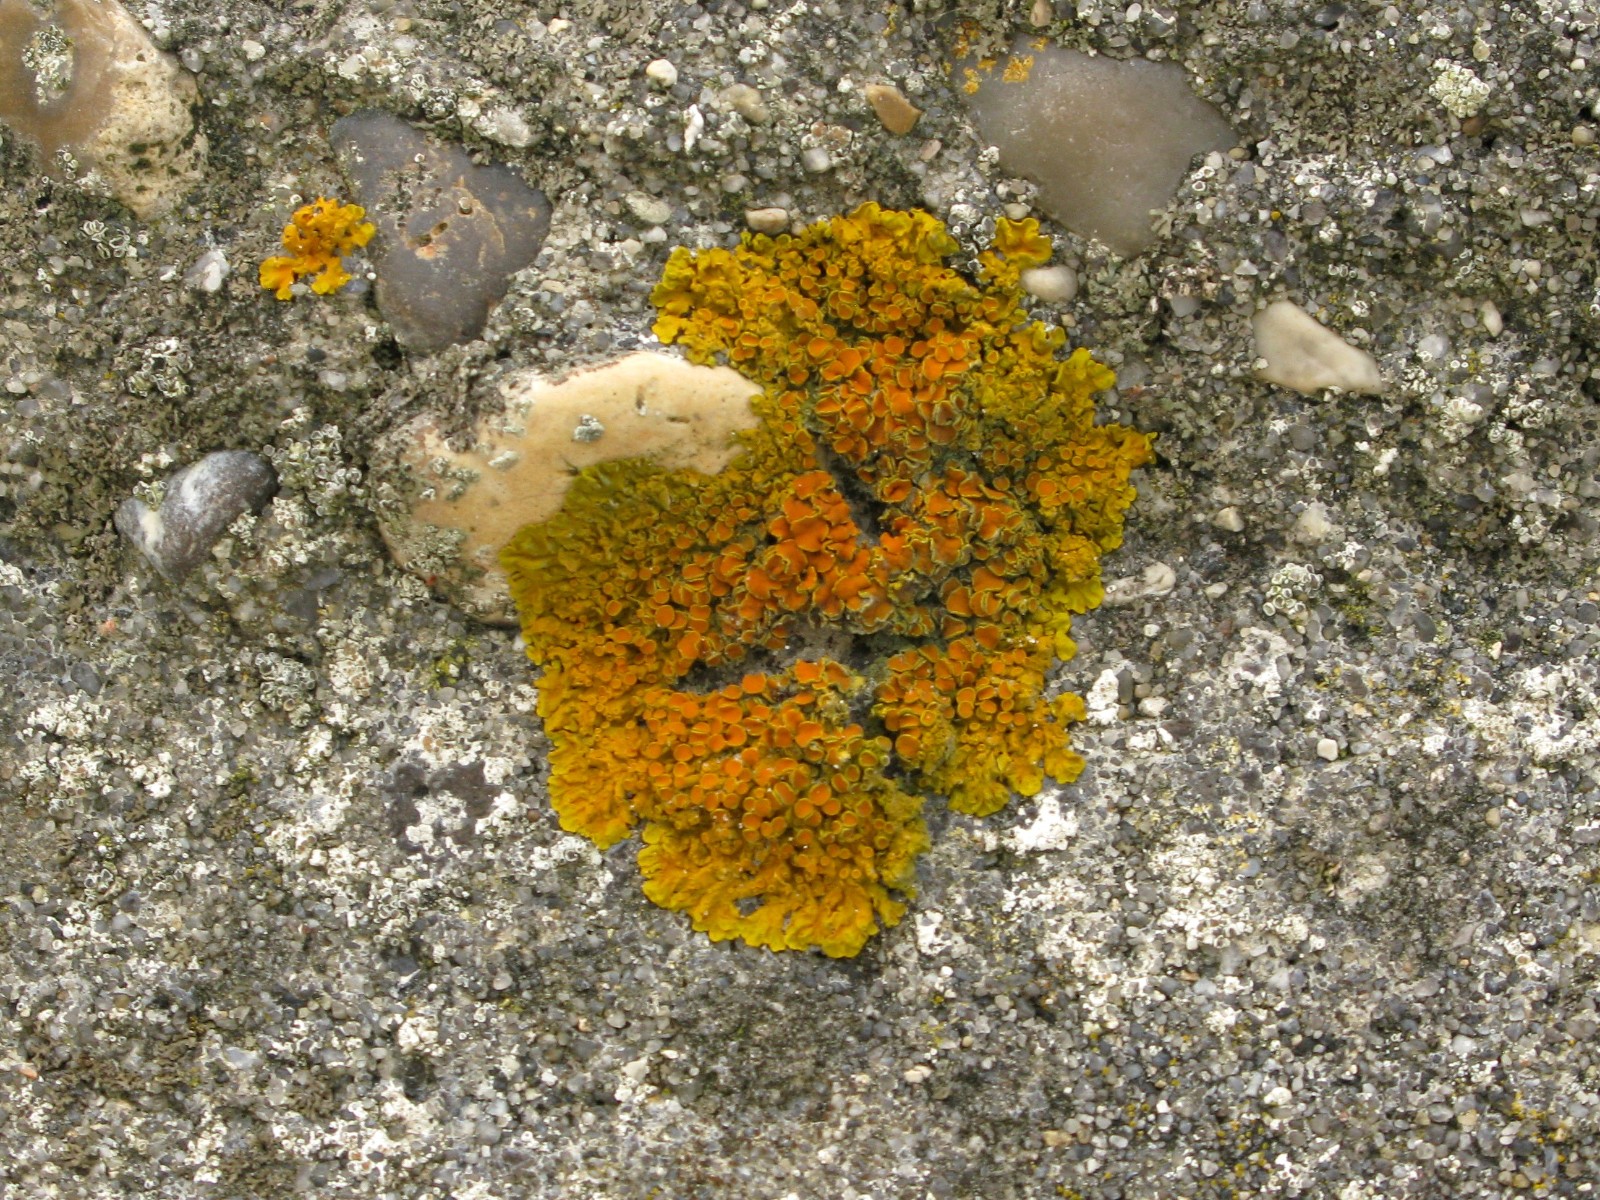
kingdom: Fungi
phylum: Ascomycota
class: Lecanoromycetes
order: Teloschistales
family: Teloschistaceae
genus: Xanthoria
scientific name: Xanthoria parietina
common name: almindelig væggelav
